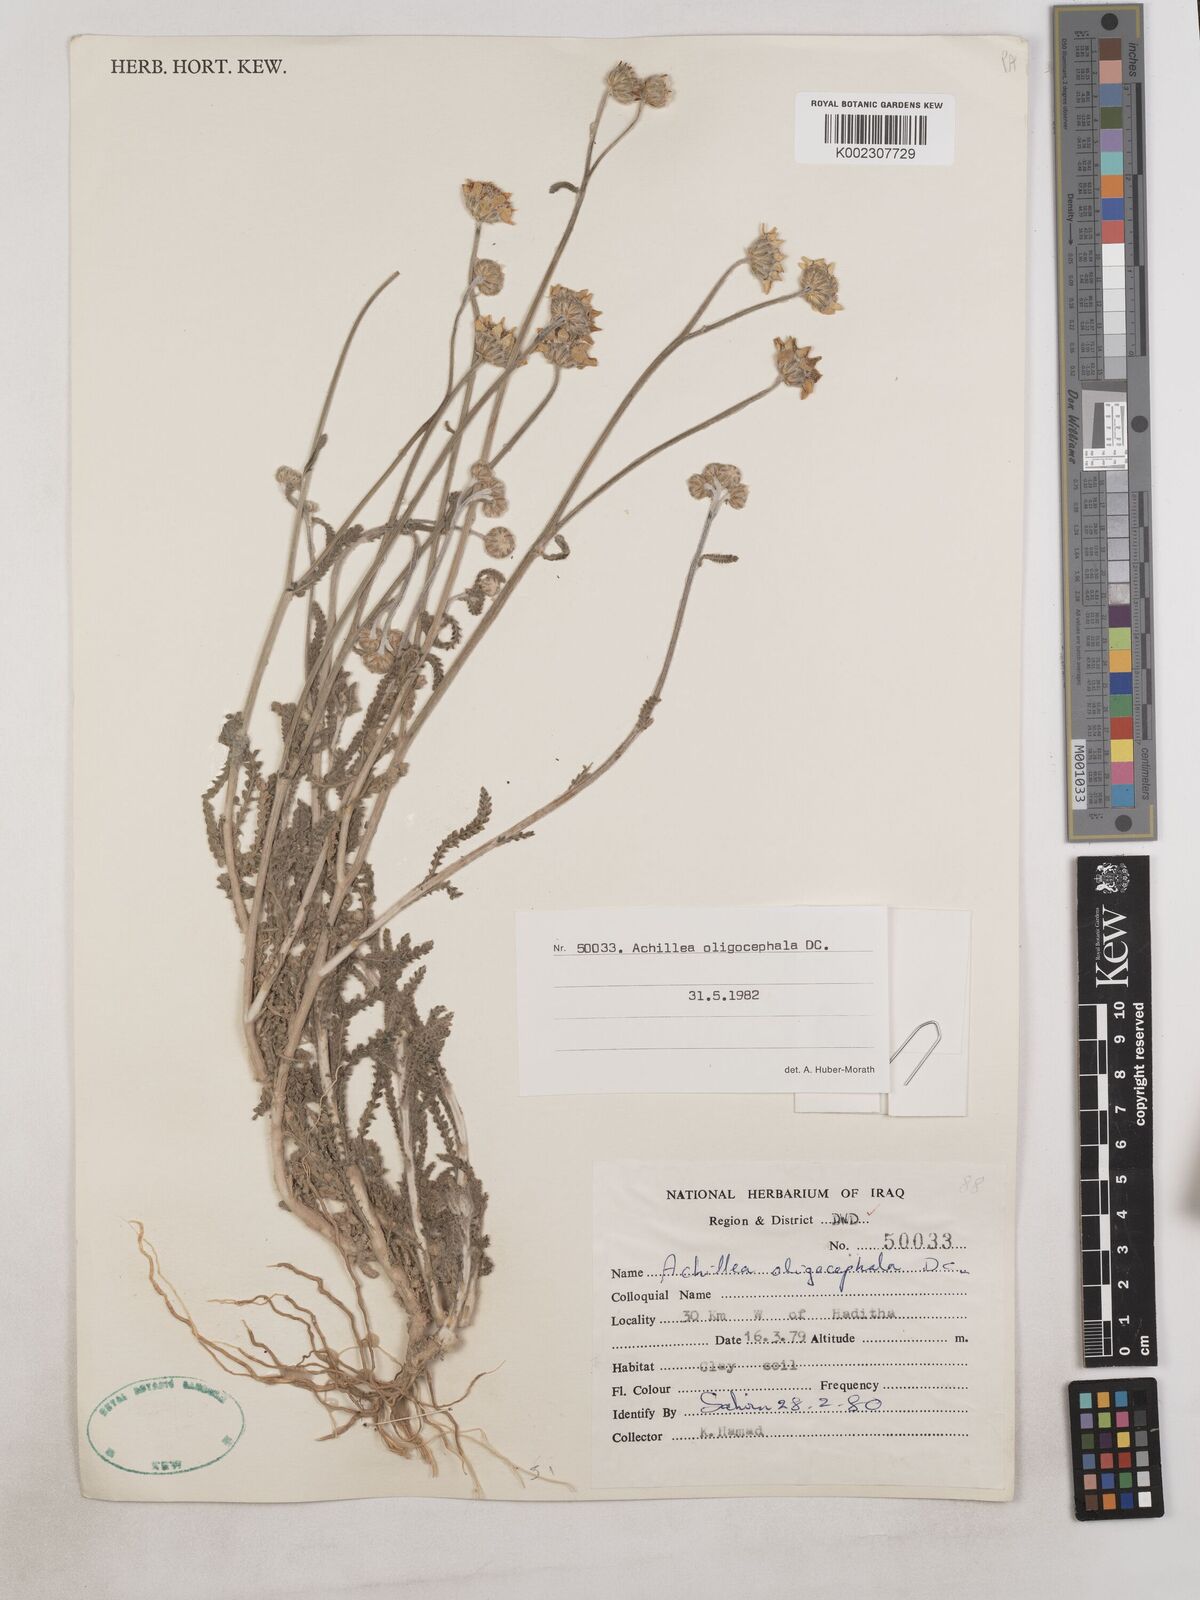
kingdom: Plantae
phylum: Tracheophyta
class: Magnoliopsida
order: Asterales
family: Asteraceae
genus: Achillea
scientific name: Achillea oligocephala
